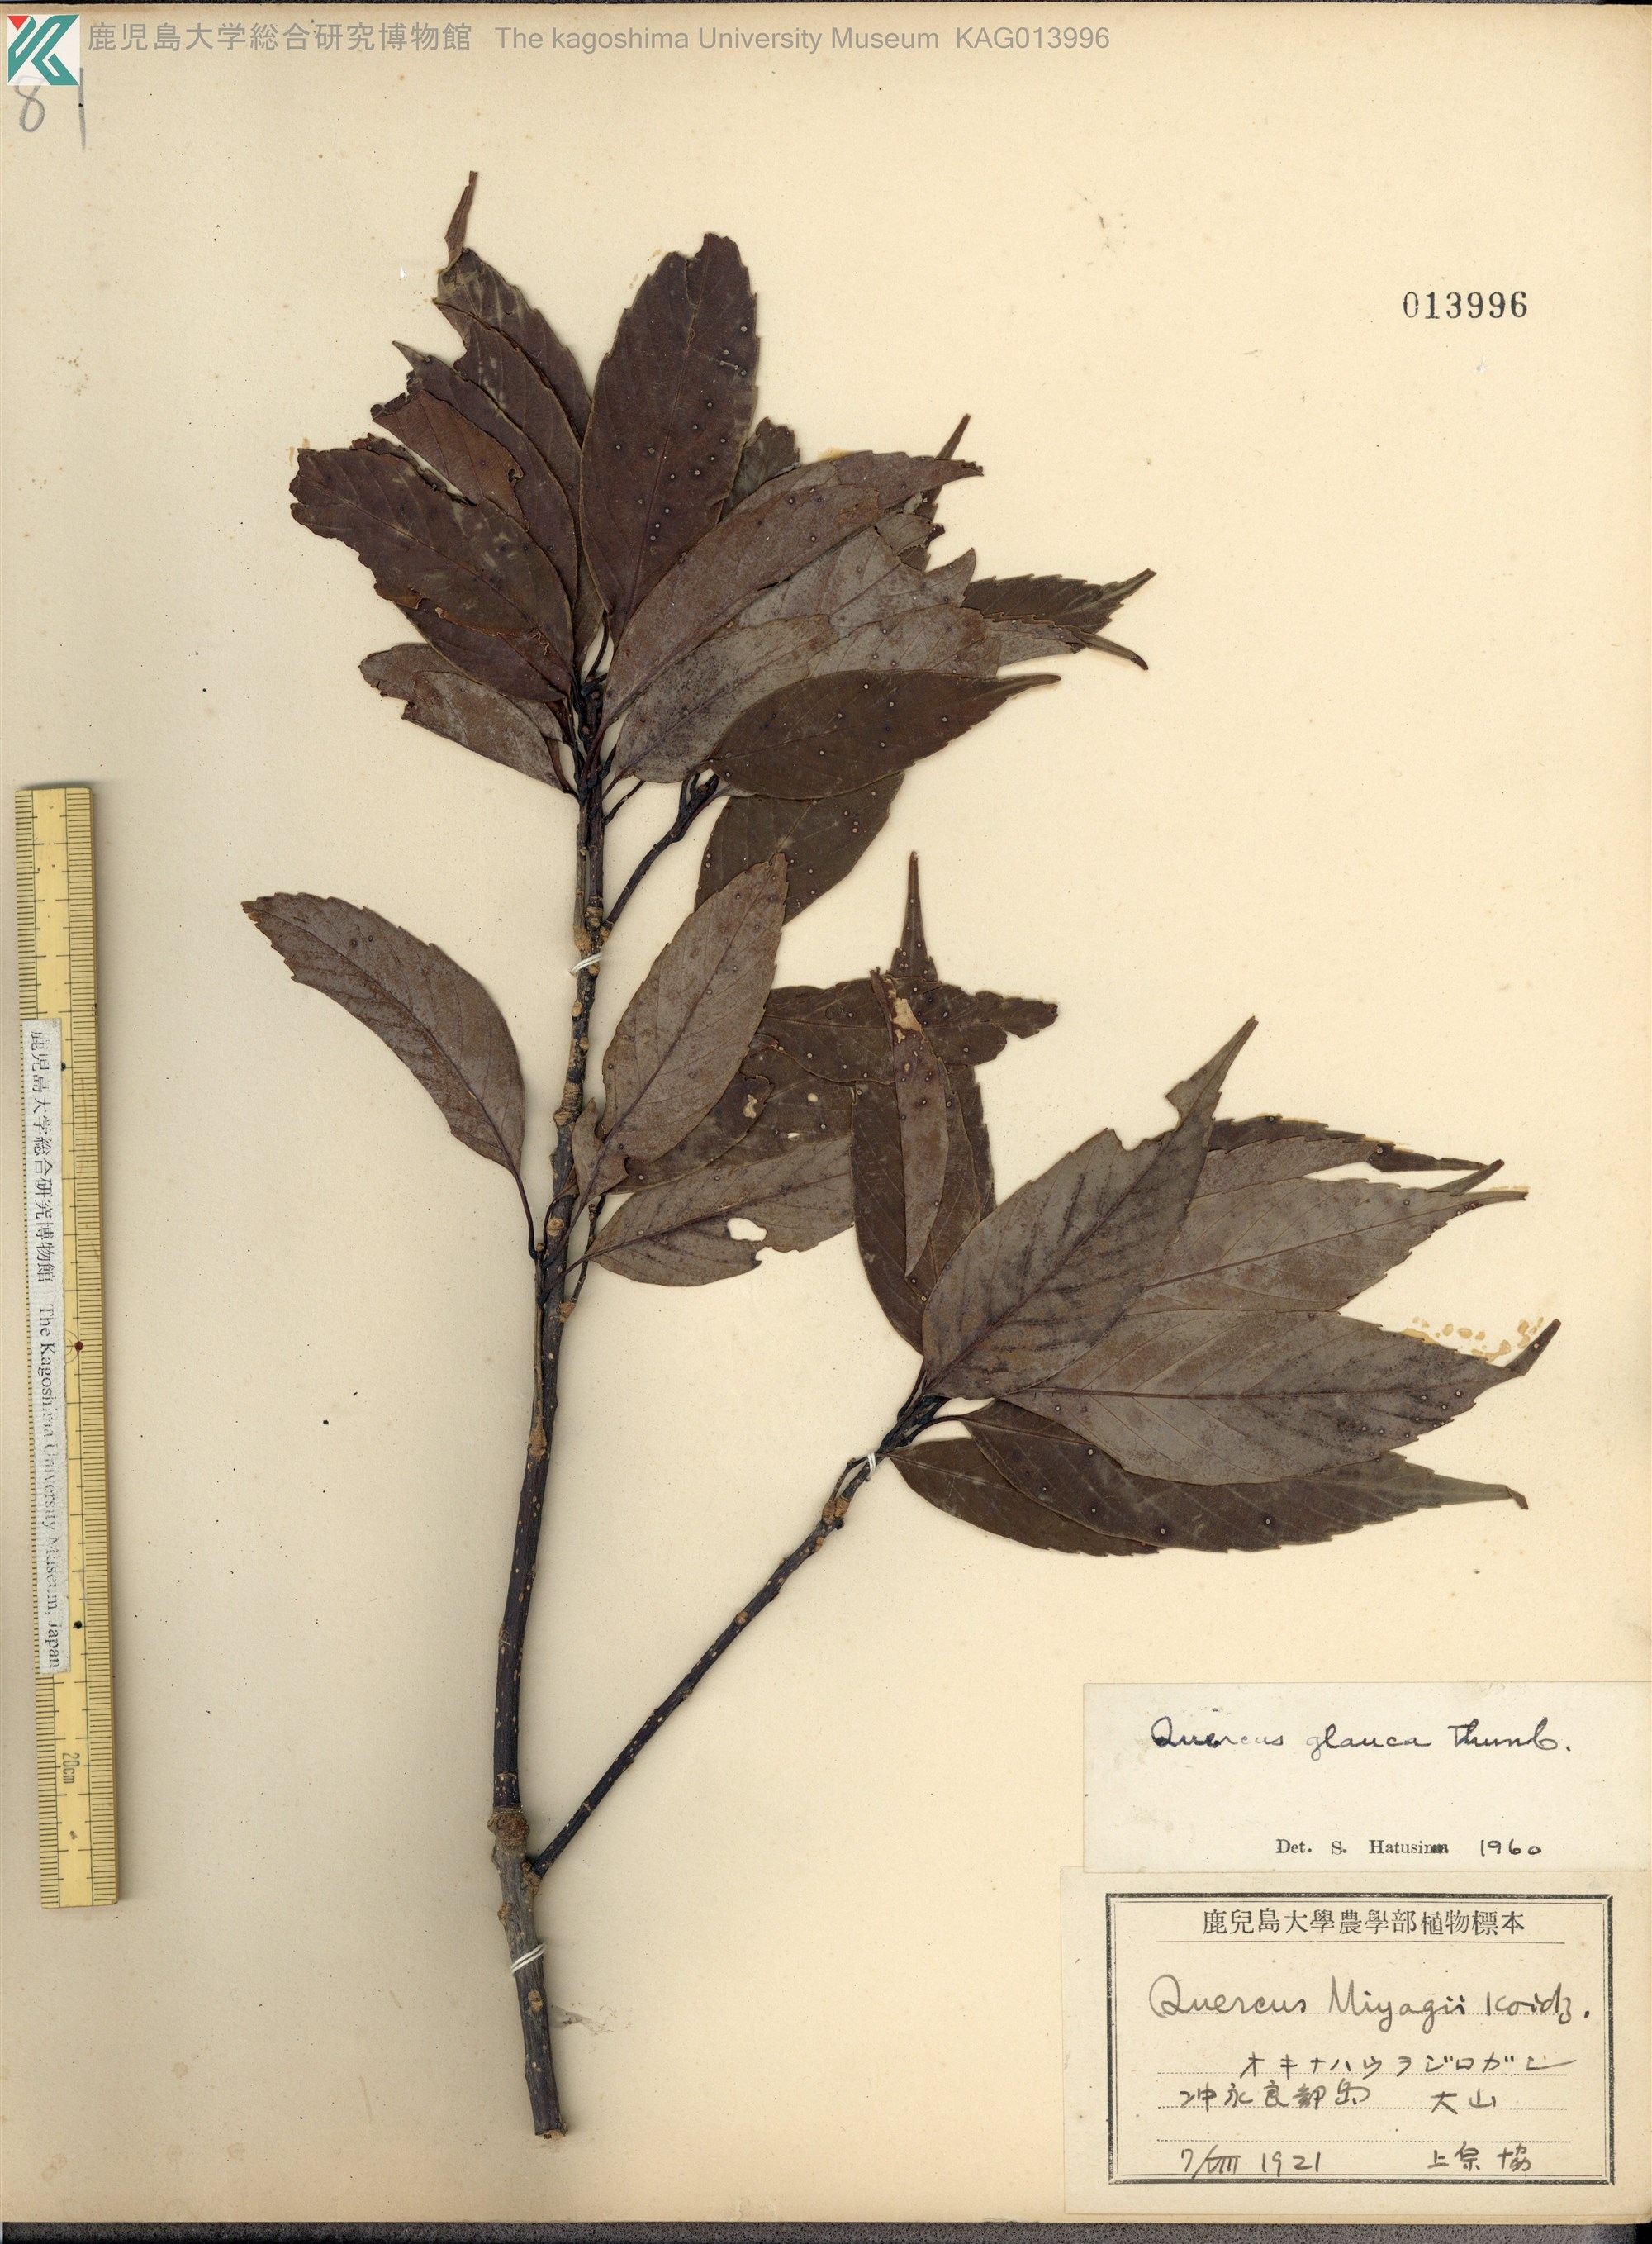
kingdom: Plantae
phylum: Tracheophyta
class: Magnoliopsida
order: Fagales
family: Fagaceae
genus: Quercus
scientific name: Quercus miyagii
